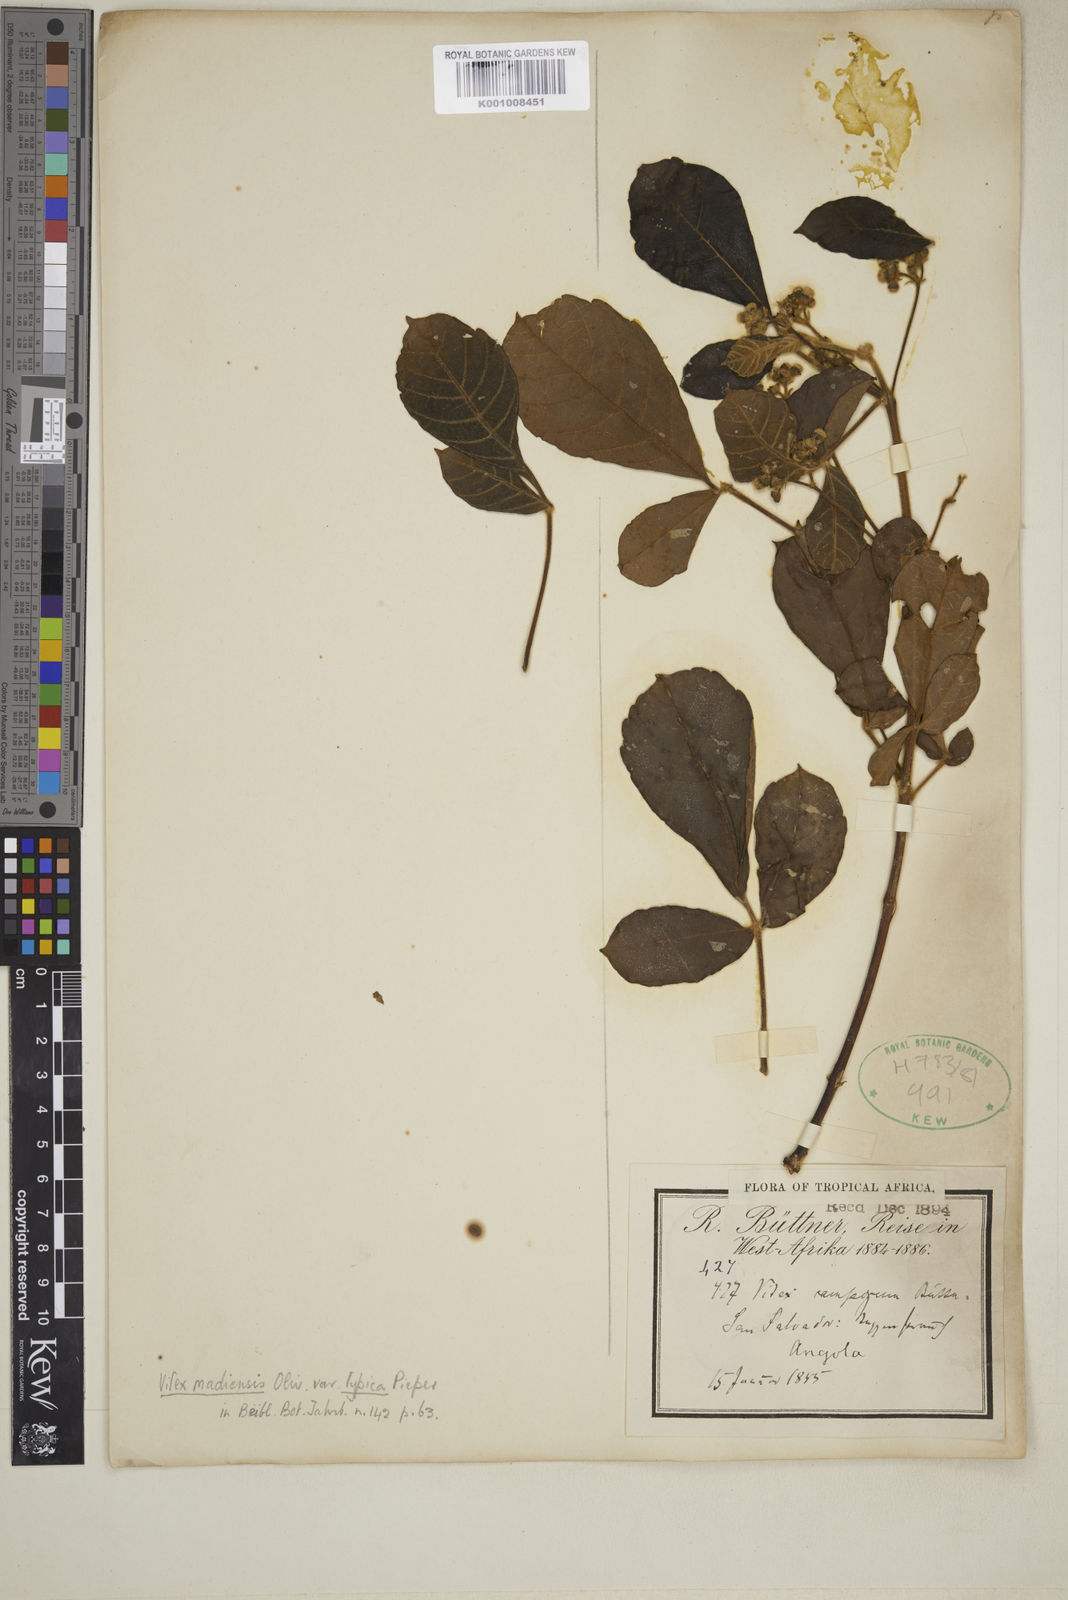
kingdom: Plantae
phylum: Tracheophyta
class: Magnoliopsida
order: Lamiales
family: Lamiaceae
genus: Vitex
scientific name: Vitex madiensis
